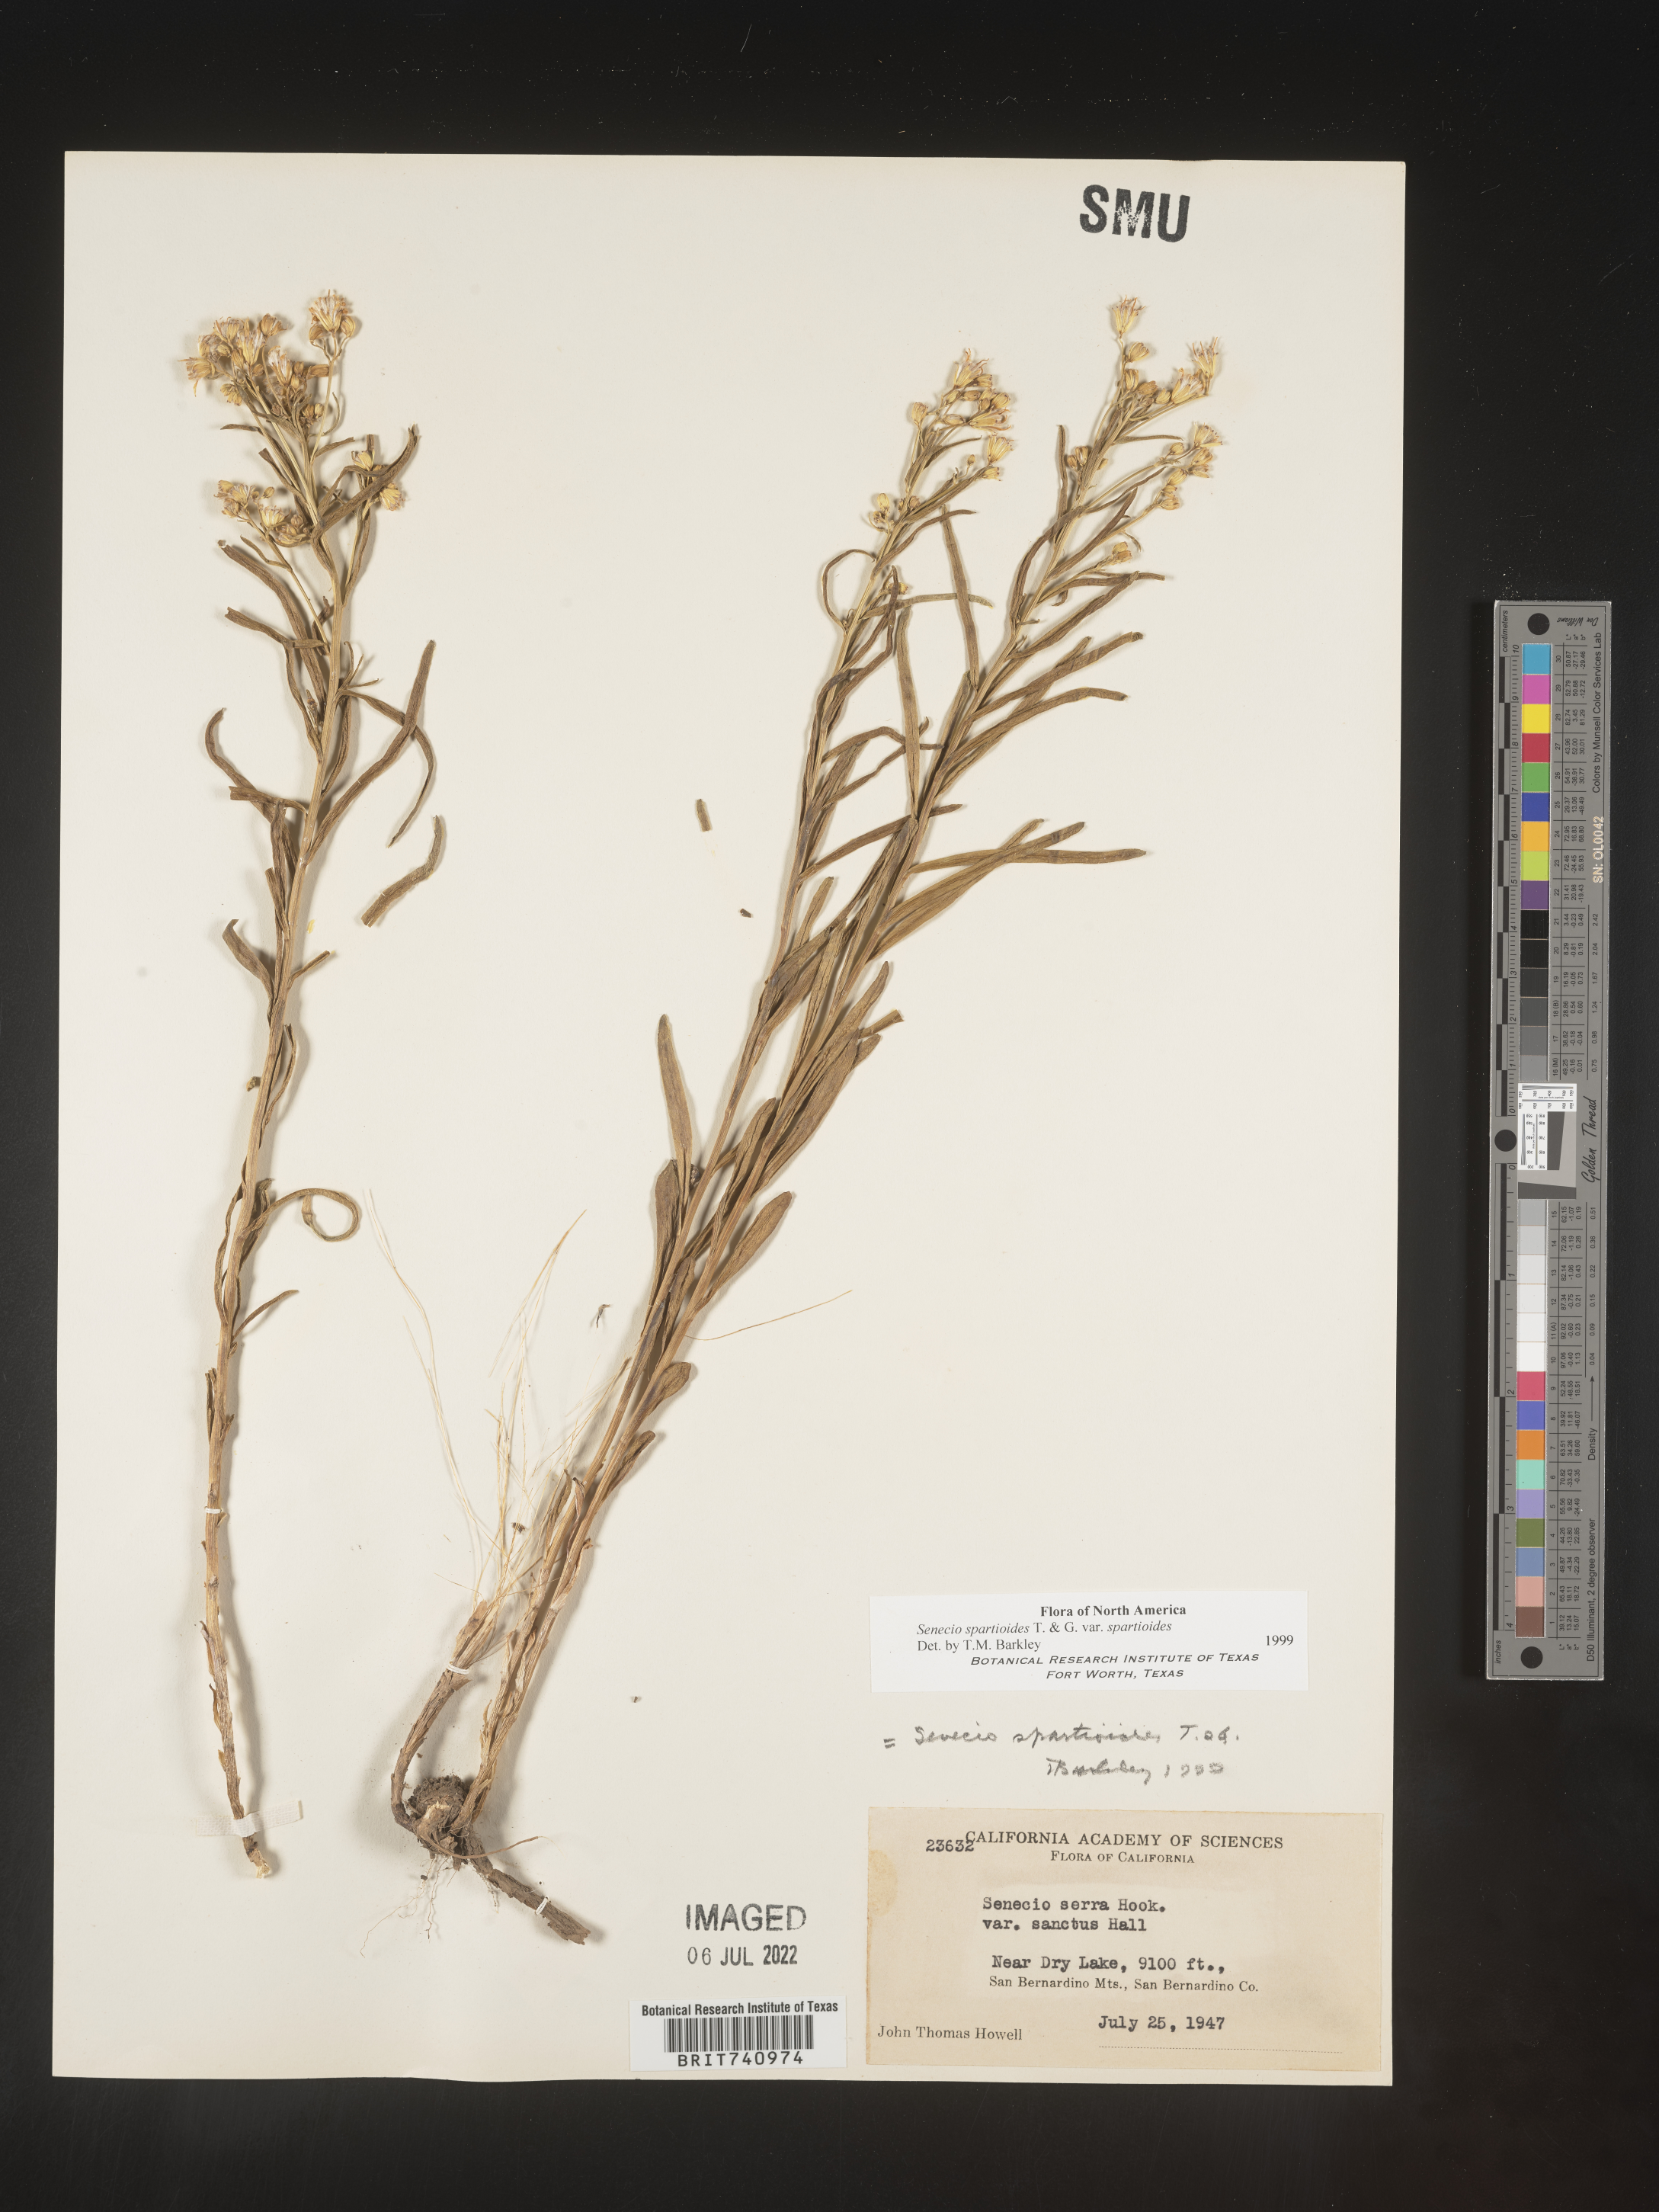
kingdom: Plantae
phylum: Tracheophyta
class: Magnoliopsida
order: Asterales
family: Asteraceae
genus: Senecio
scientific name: Senecio spartioides
